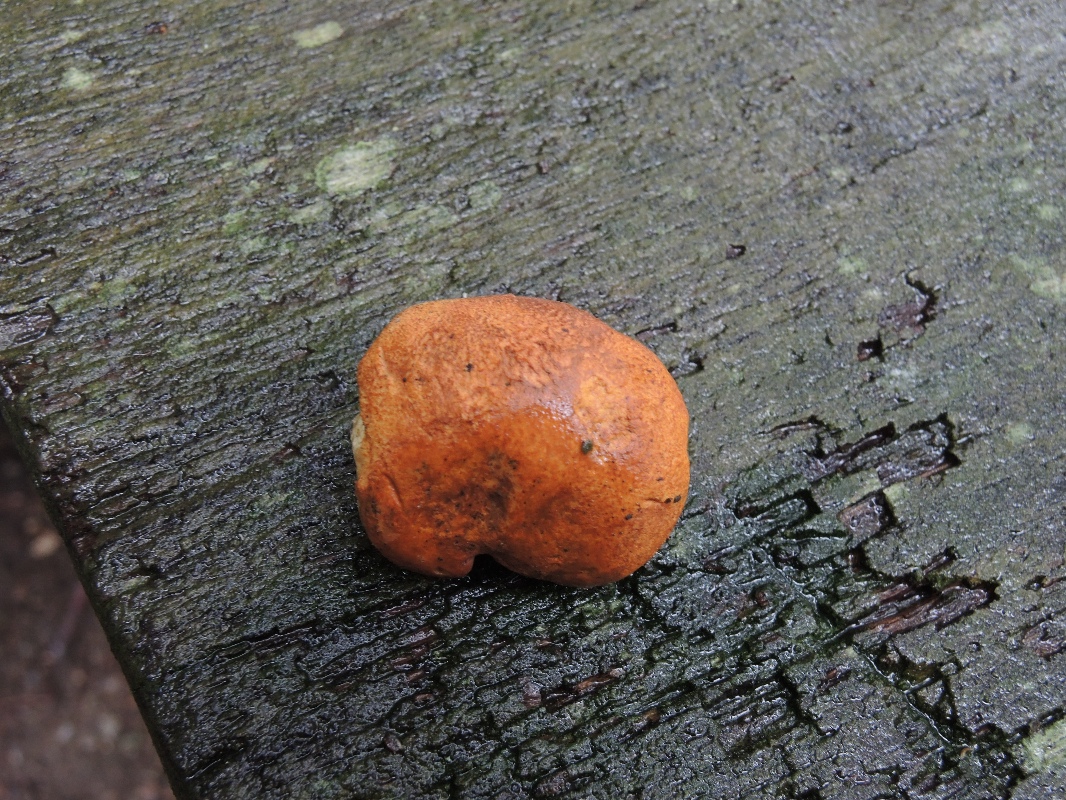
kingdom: Fungi
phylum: Basidiomycota
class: Agaricomycetes
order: Boletales
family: Boletaceae
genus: Buchwaldoboletus
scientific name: Buchwaldoboletus lignicola
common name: stødrørhat
